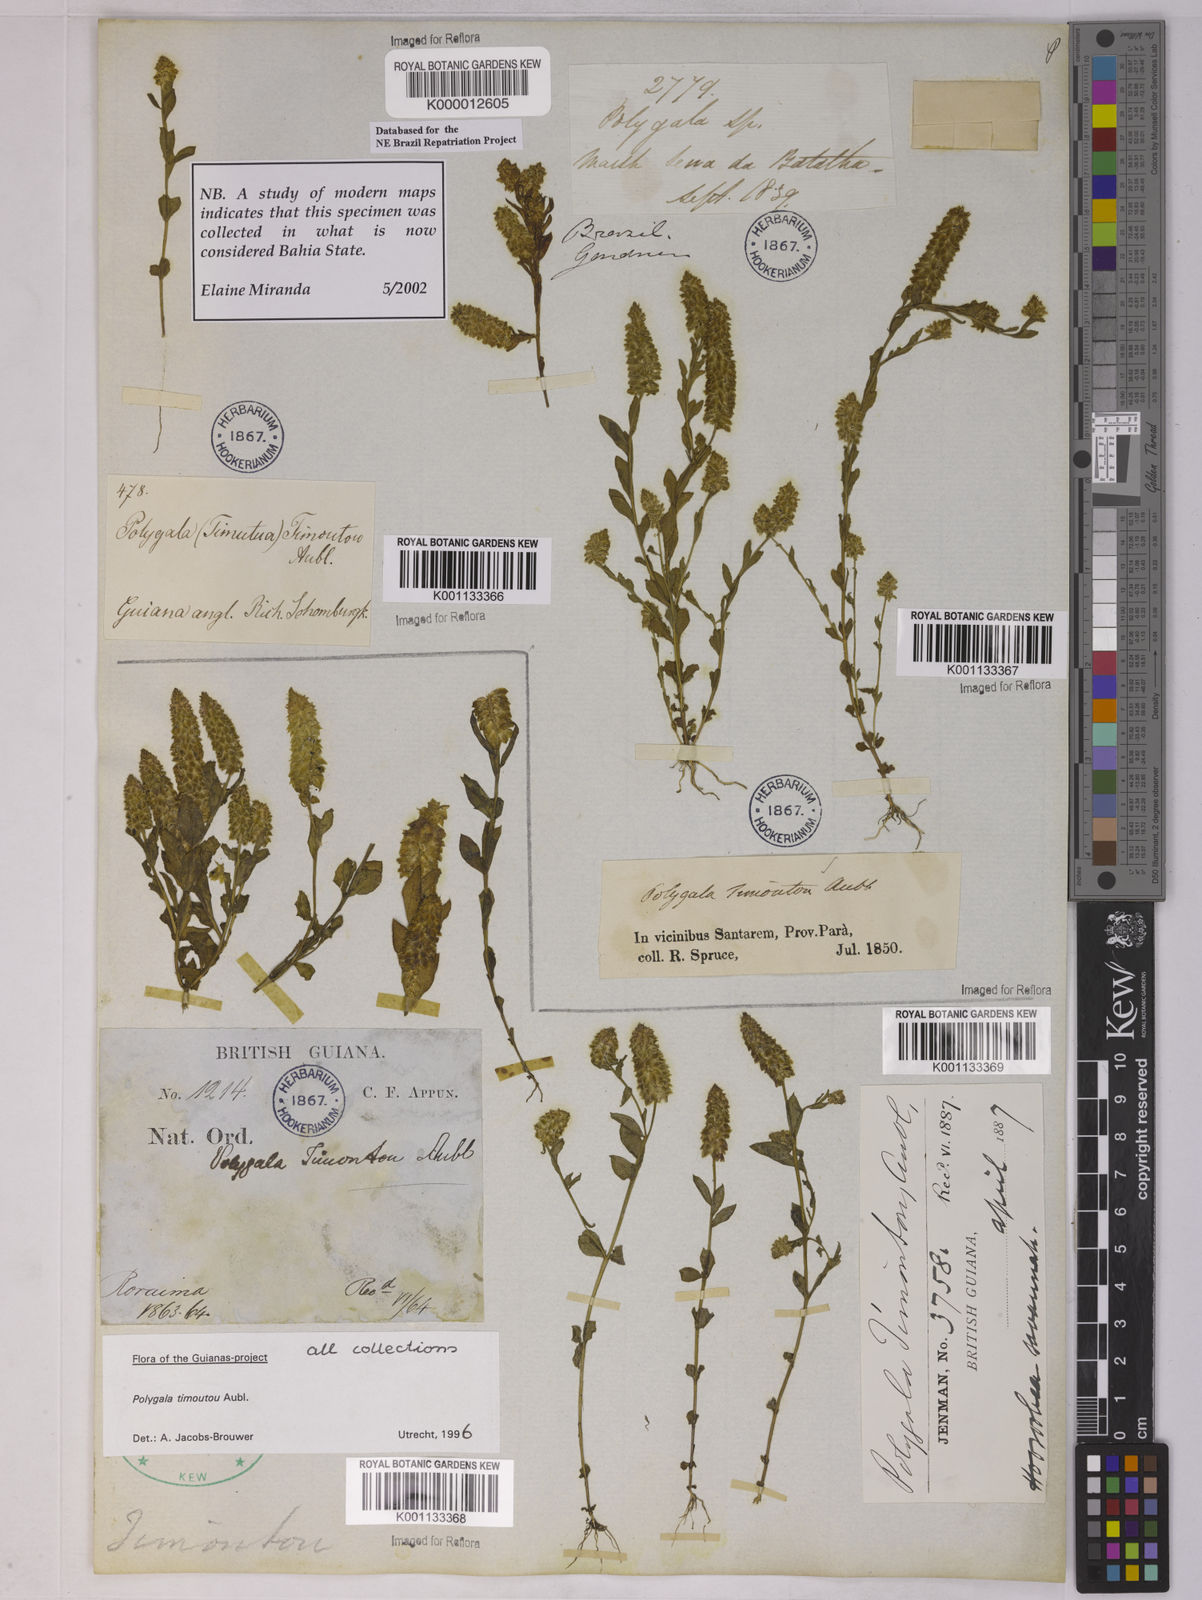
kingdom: Plantae
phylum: Tracheophyta
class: Magnoliopsida
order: Fabales
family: Polygalaceae
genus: Polygala
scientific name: Polygala timoutoides
